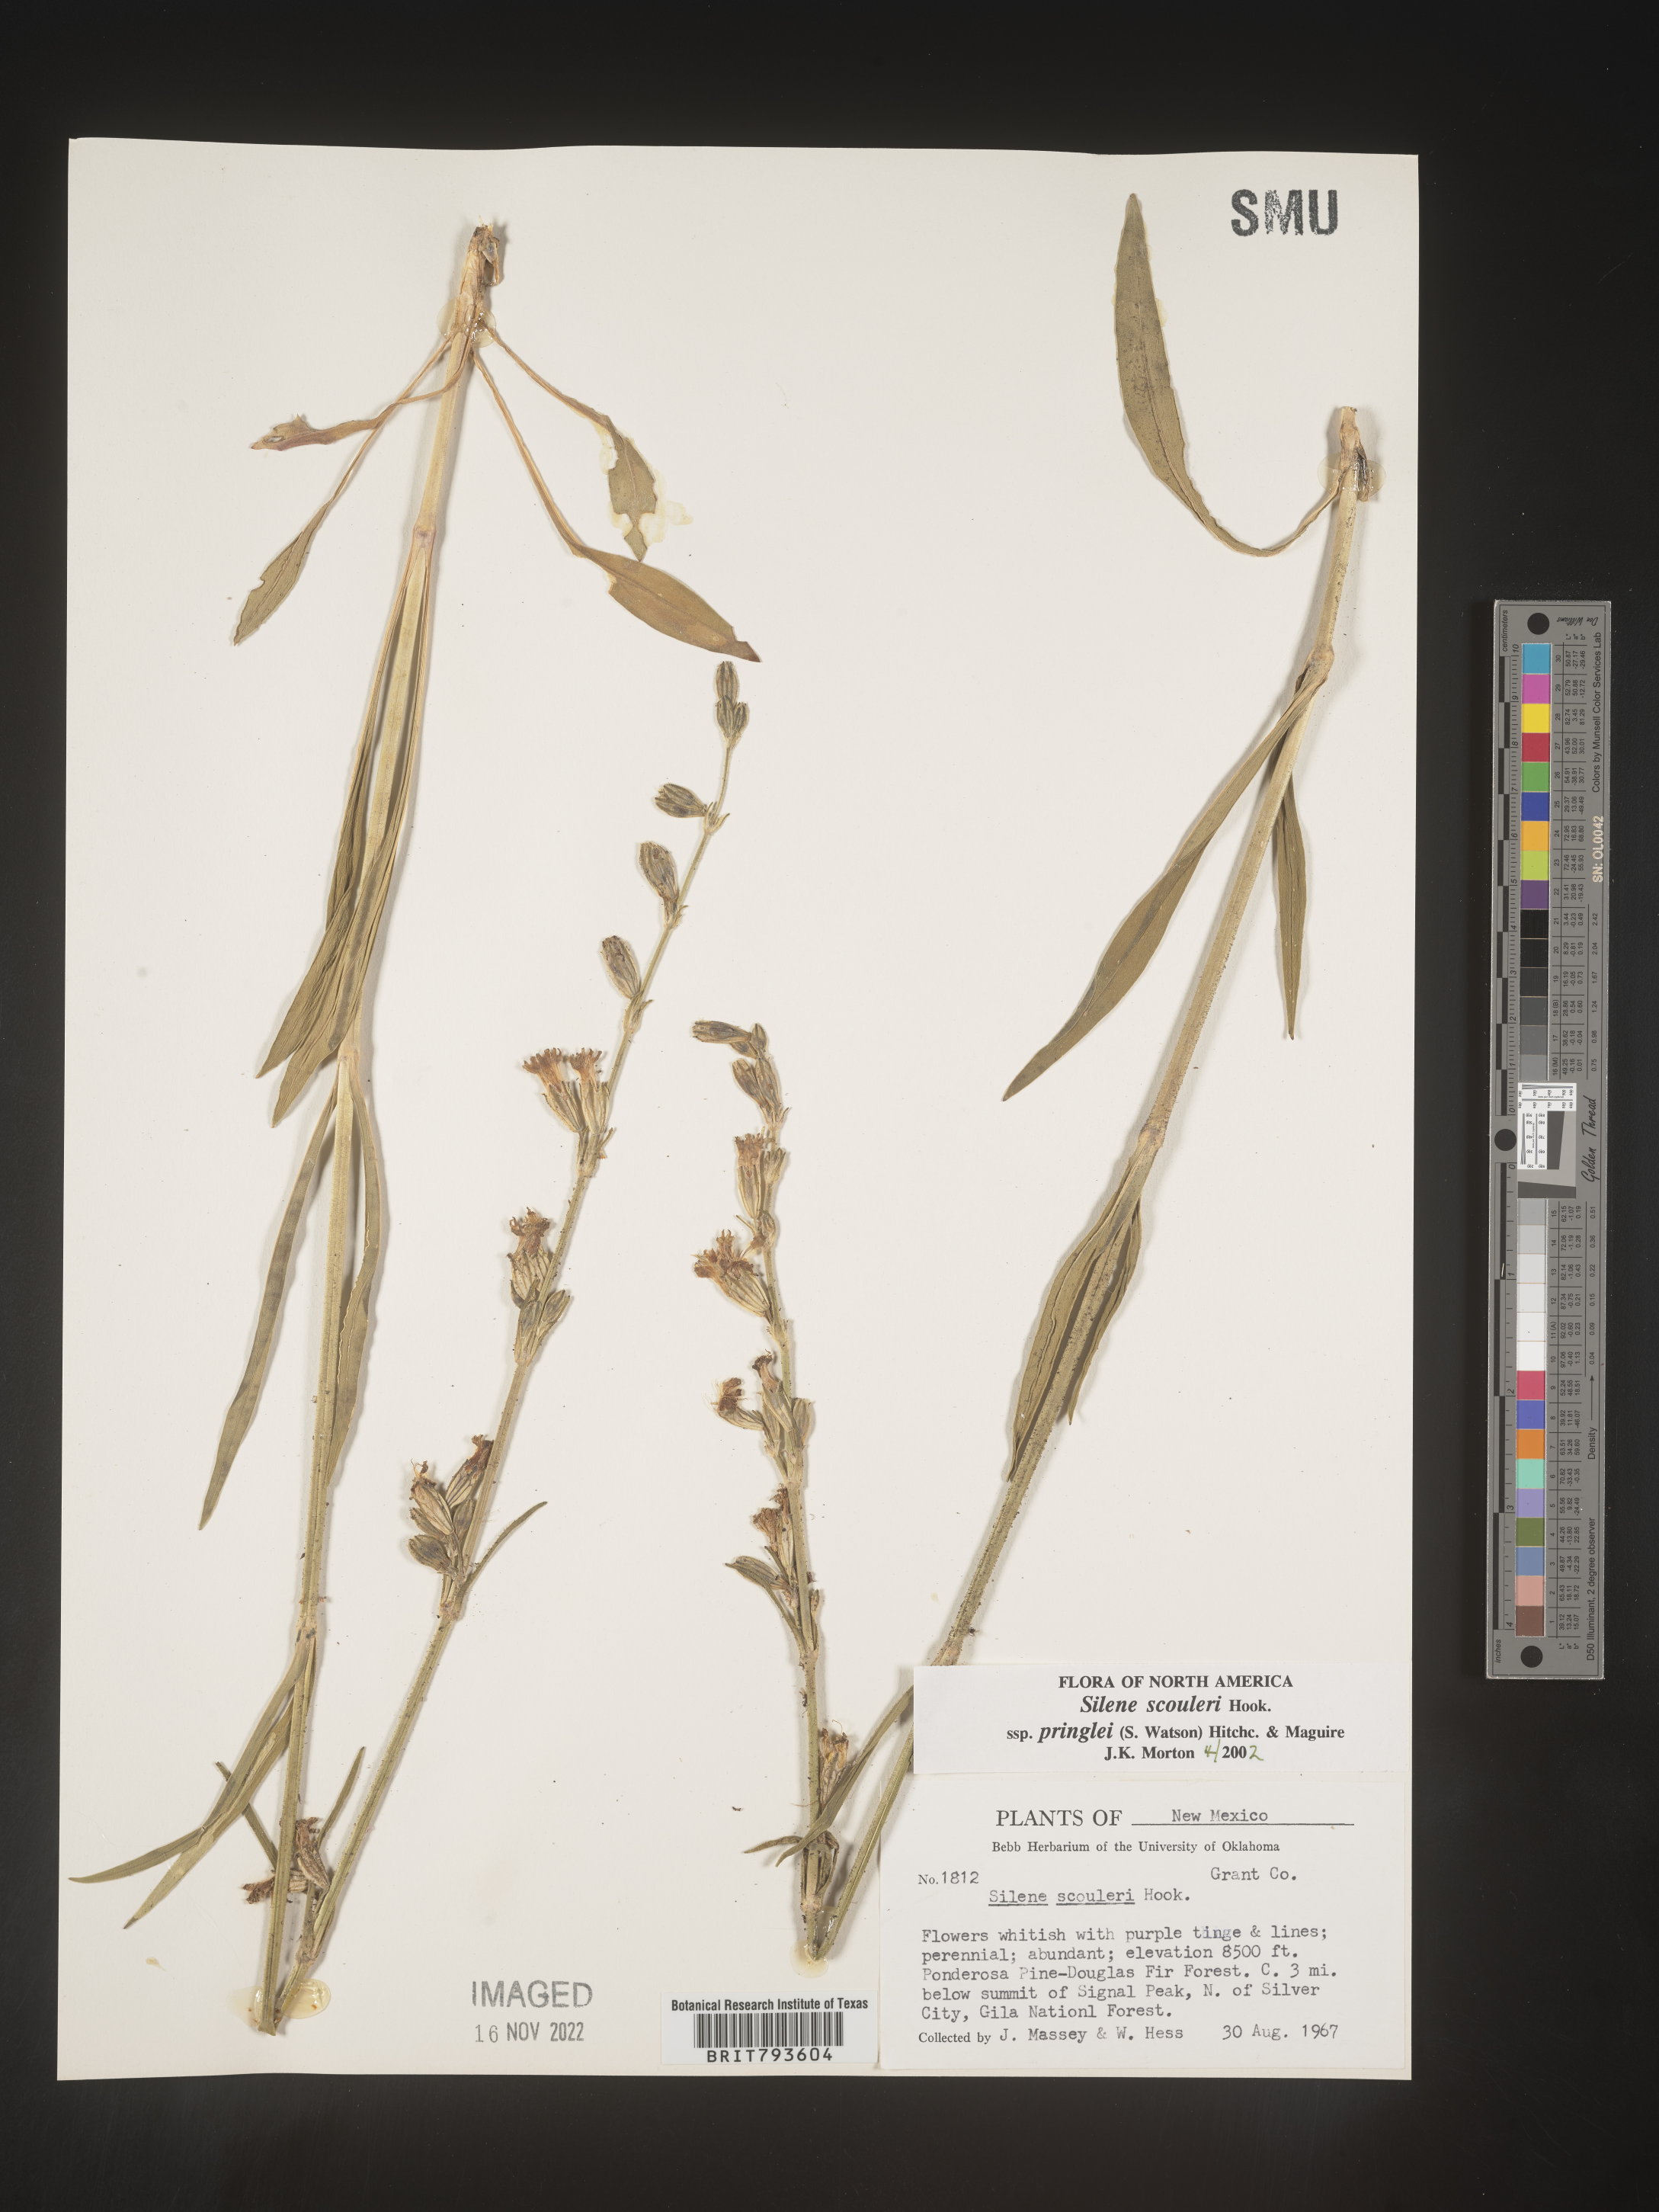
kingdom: Plantae
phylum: Tracheophyta
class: Magnoliopsida
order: Caryophyllales
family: Caryophyllaceae
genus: Silene
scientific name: Silene scouleri
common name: Scouler's campion
